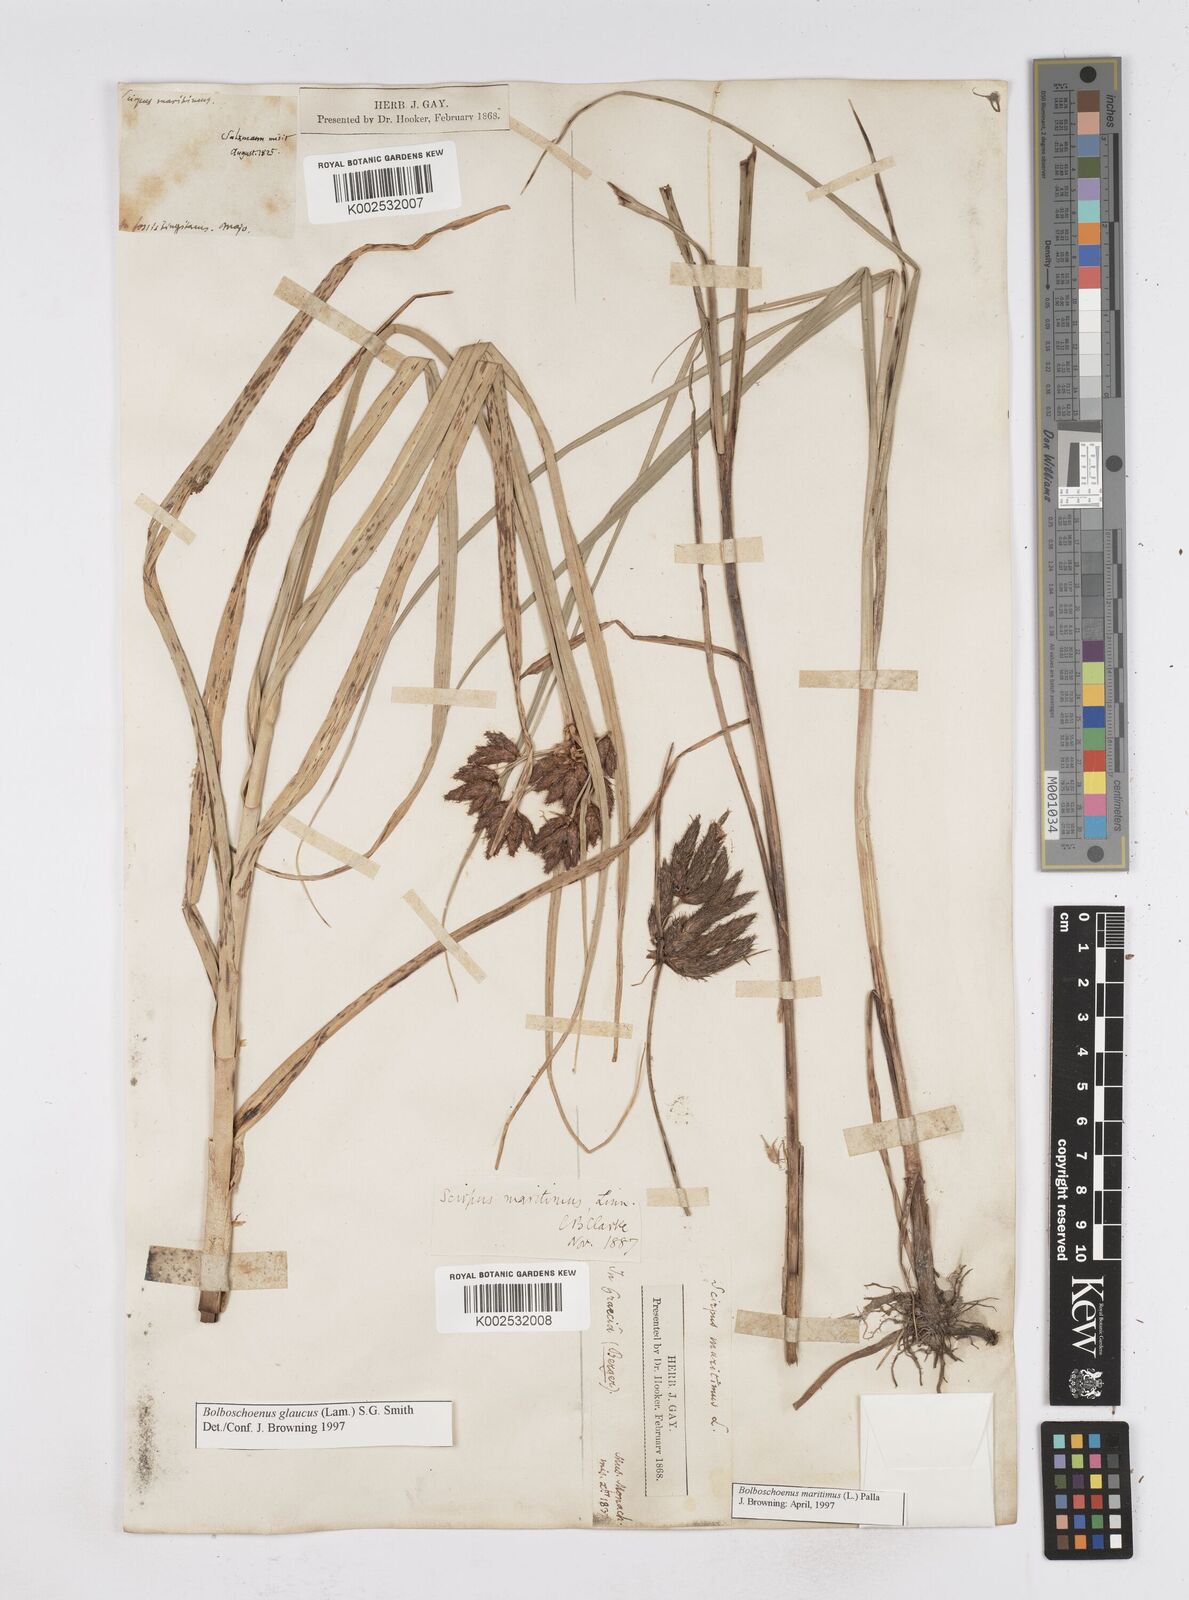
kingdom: Plantae
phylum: Tracheophyta
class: Liliopsida
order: Poales
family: Cyperaceae
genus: Bolboschoenus
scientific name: Bolboschoenus maritimus
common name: Sea club-rush
